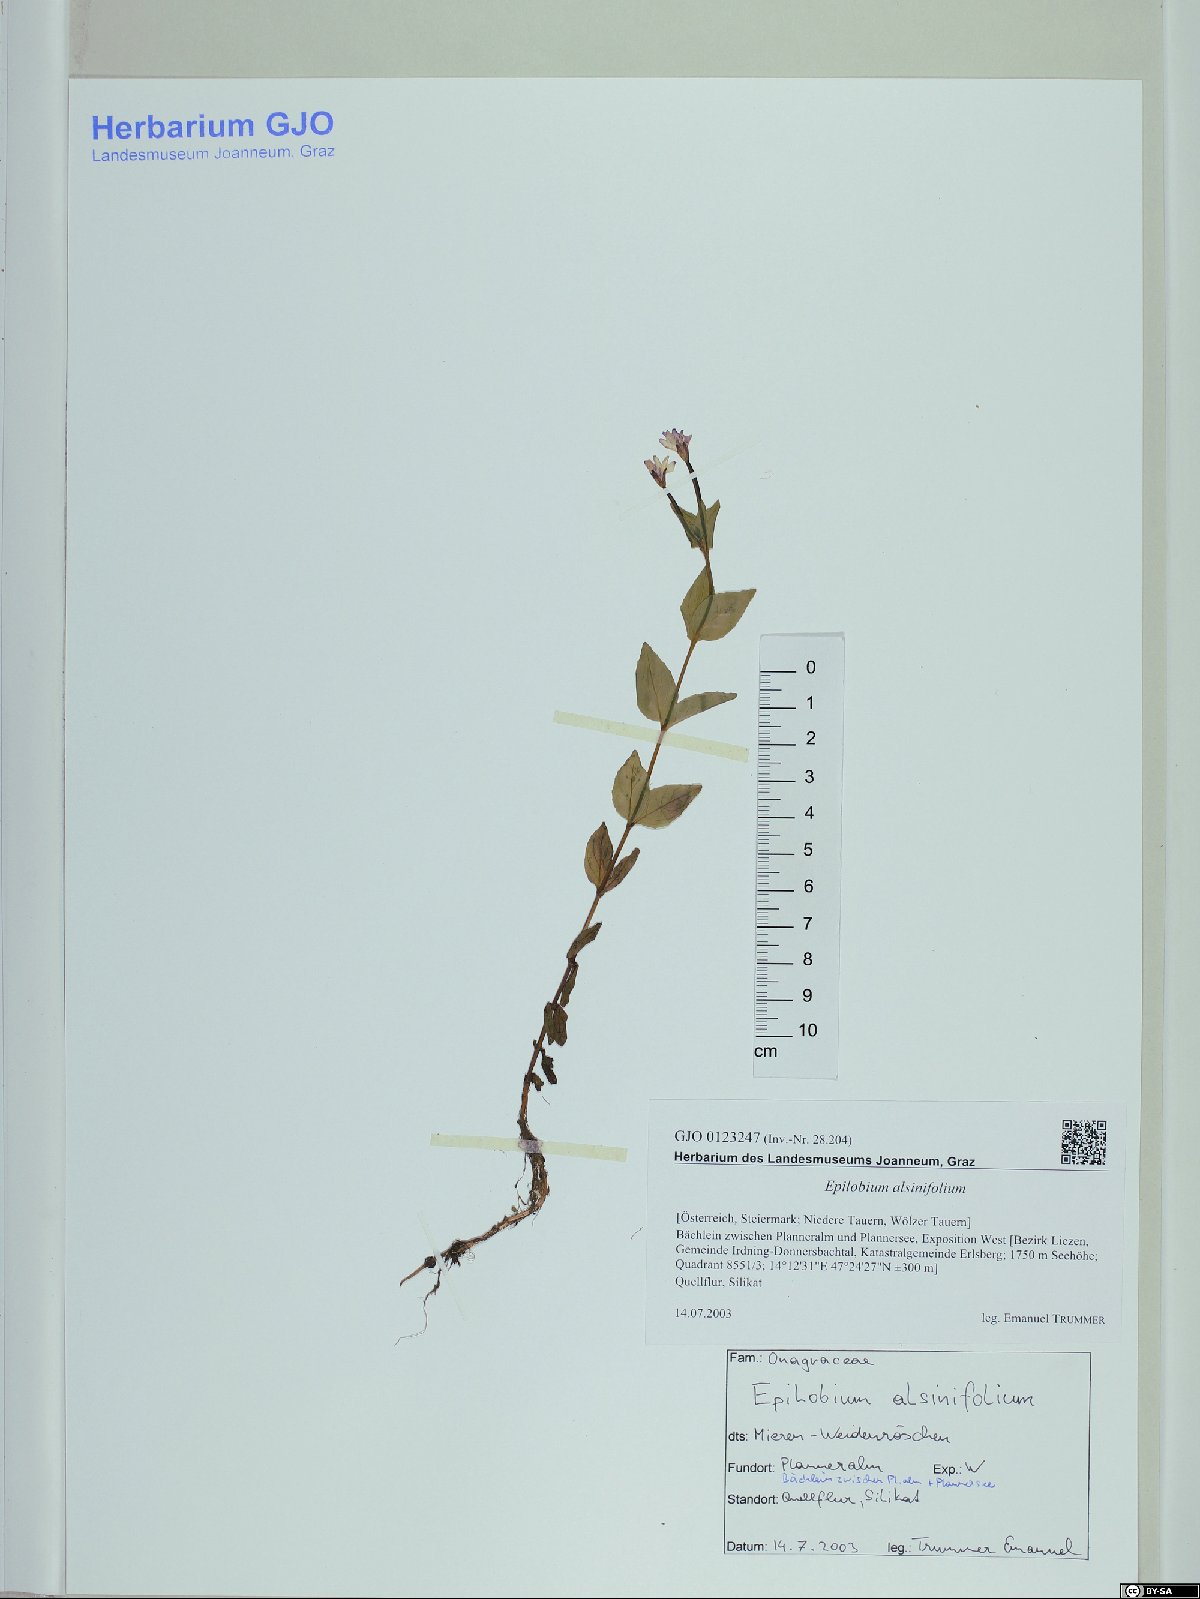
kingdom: Plantae
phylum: Tracheophyta
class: Magnoliopsida
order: Myrtales
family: Onagraceae
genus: Epilobium
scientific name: Epilobium alsinifolium
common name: Chickweed willowherb
